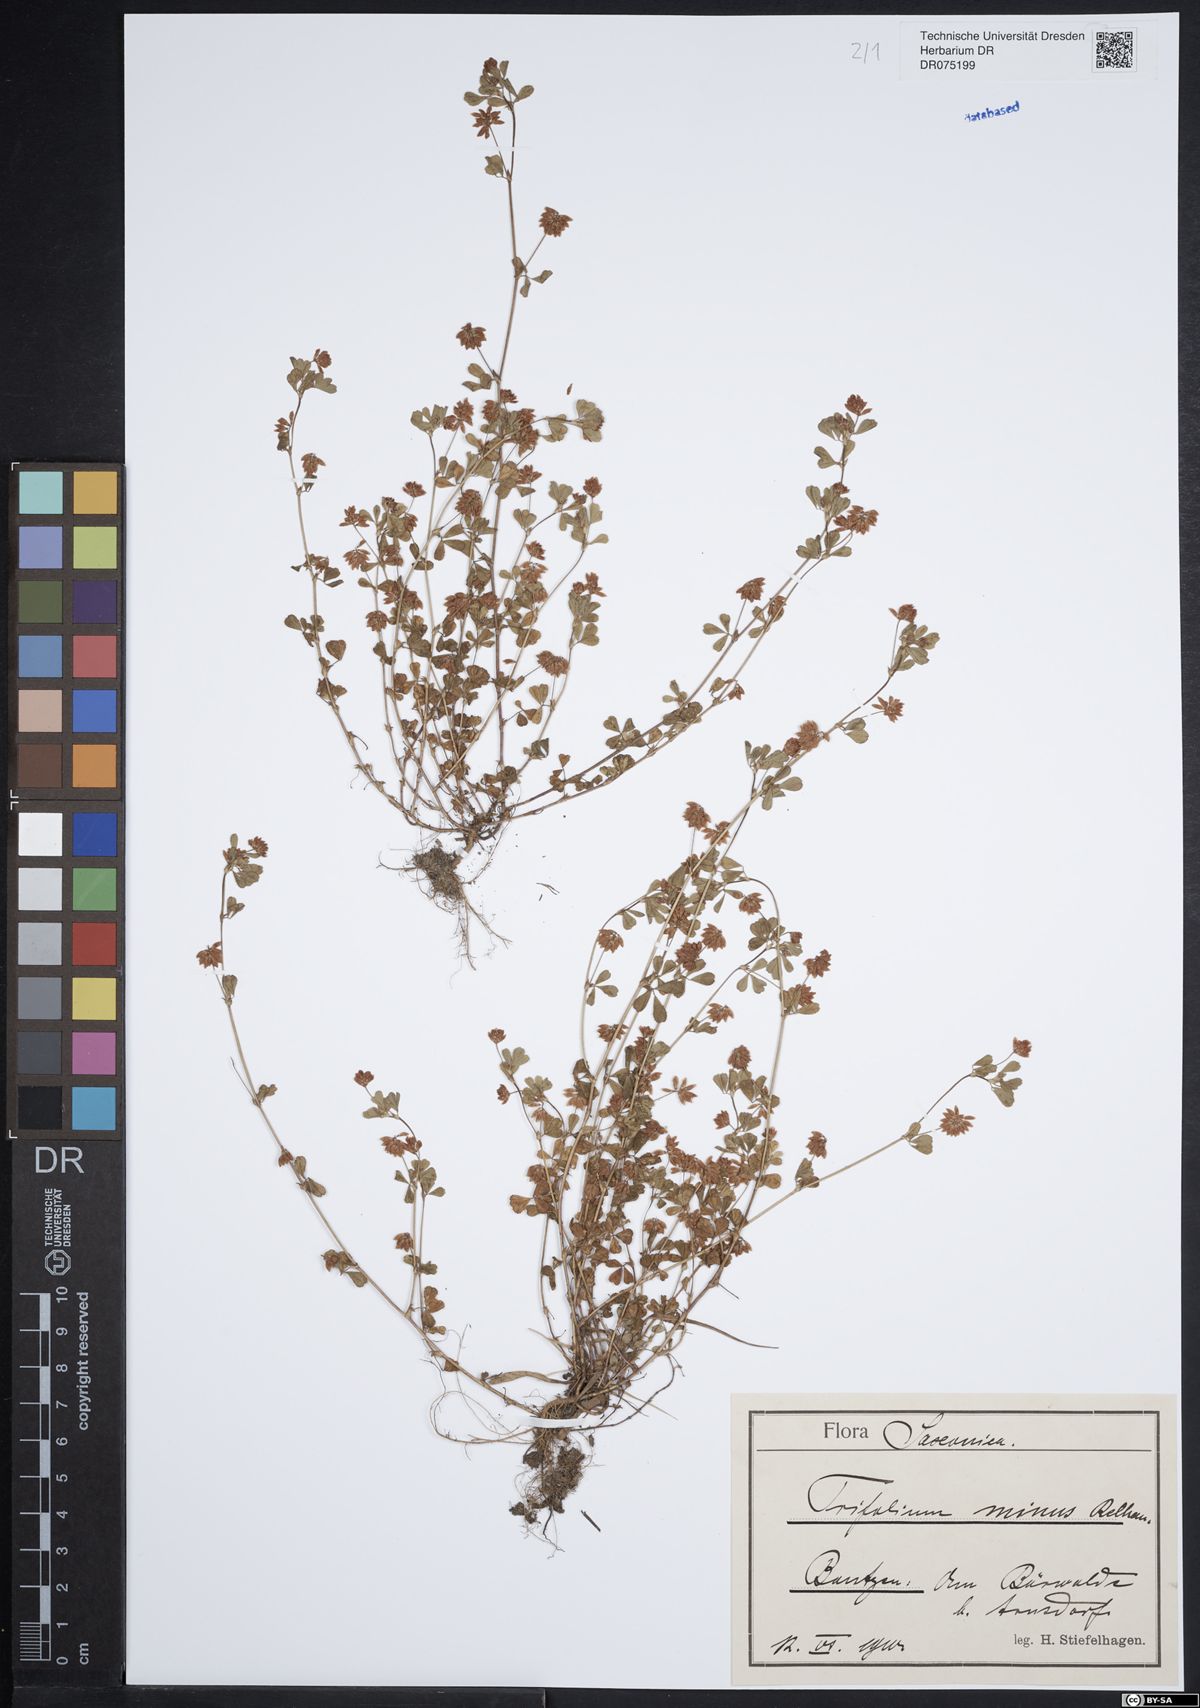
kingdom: Plantae
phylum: Tracheophyta
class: Magnoliopsida
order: Fabales
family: Fabaceae
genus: Trifolium
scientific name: Trifolium dubium
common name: Suckling clover
